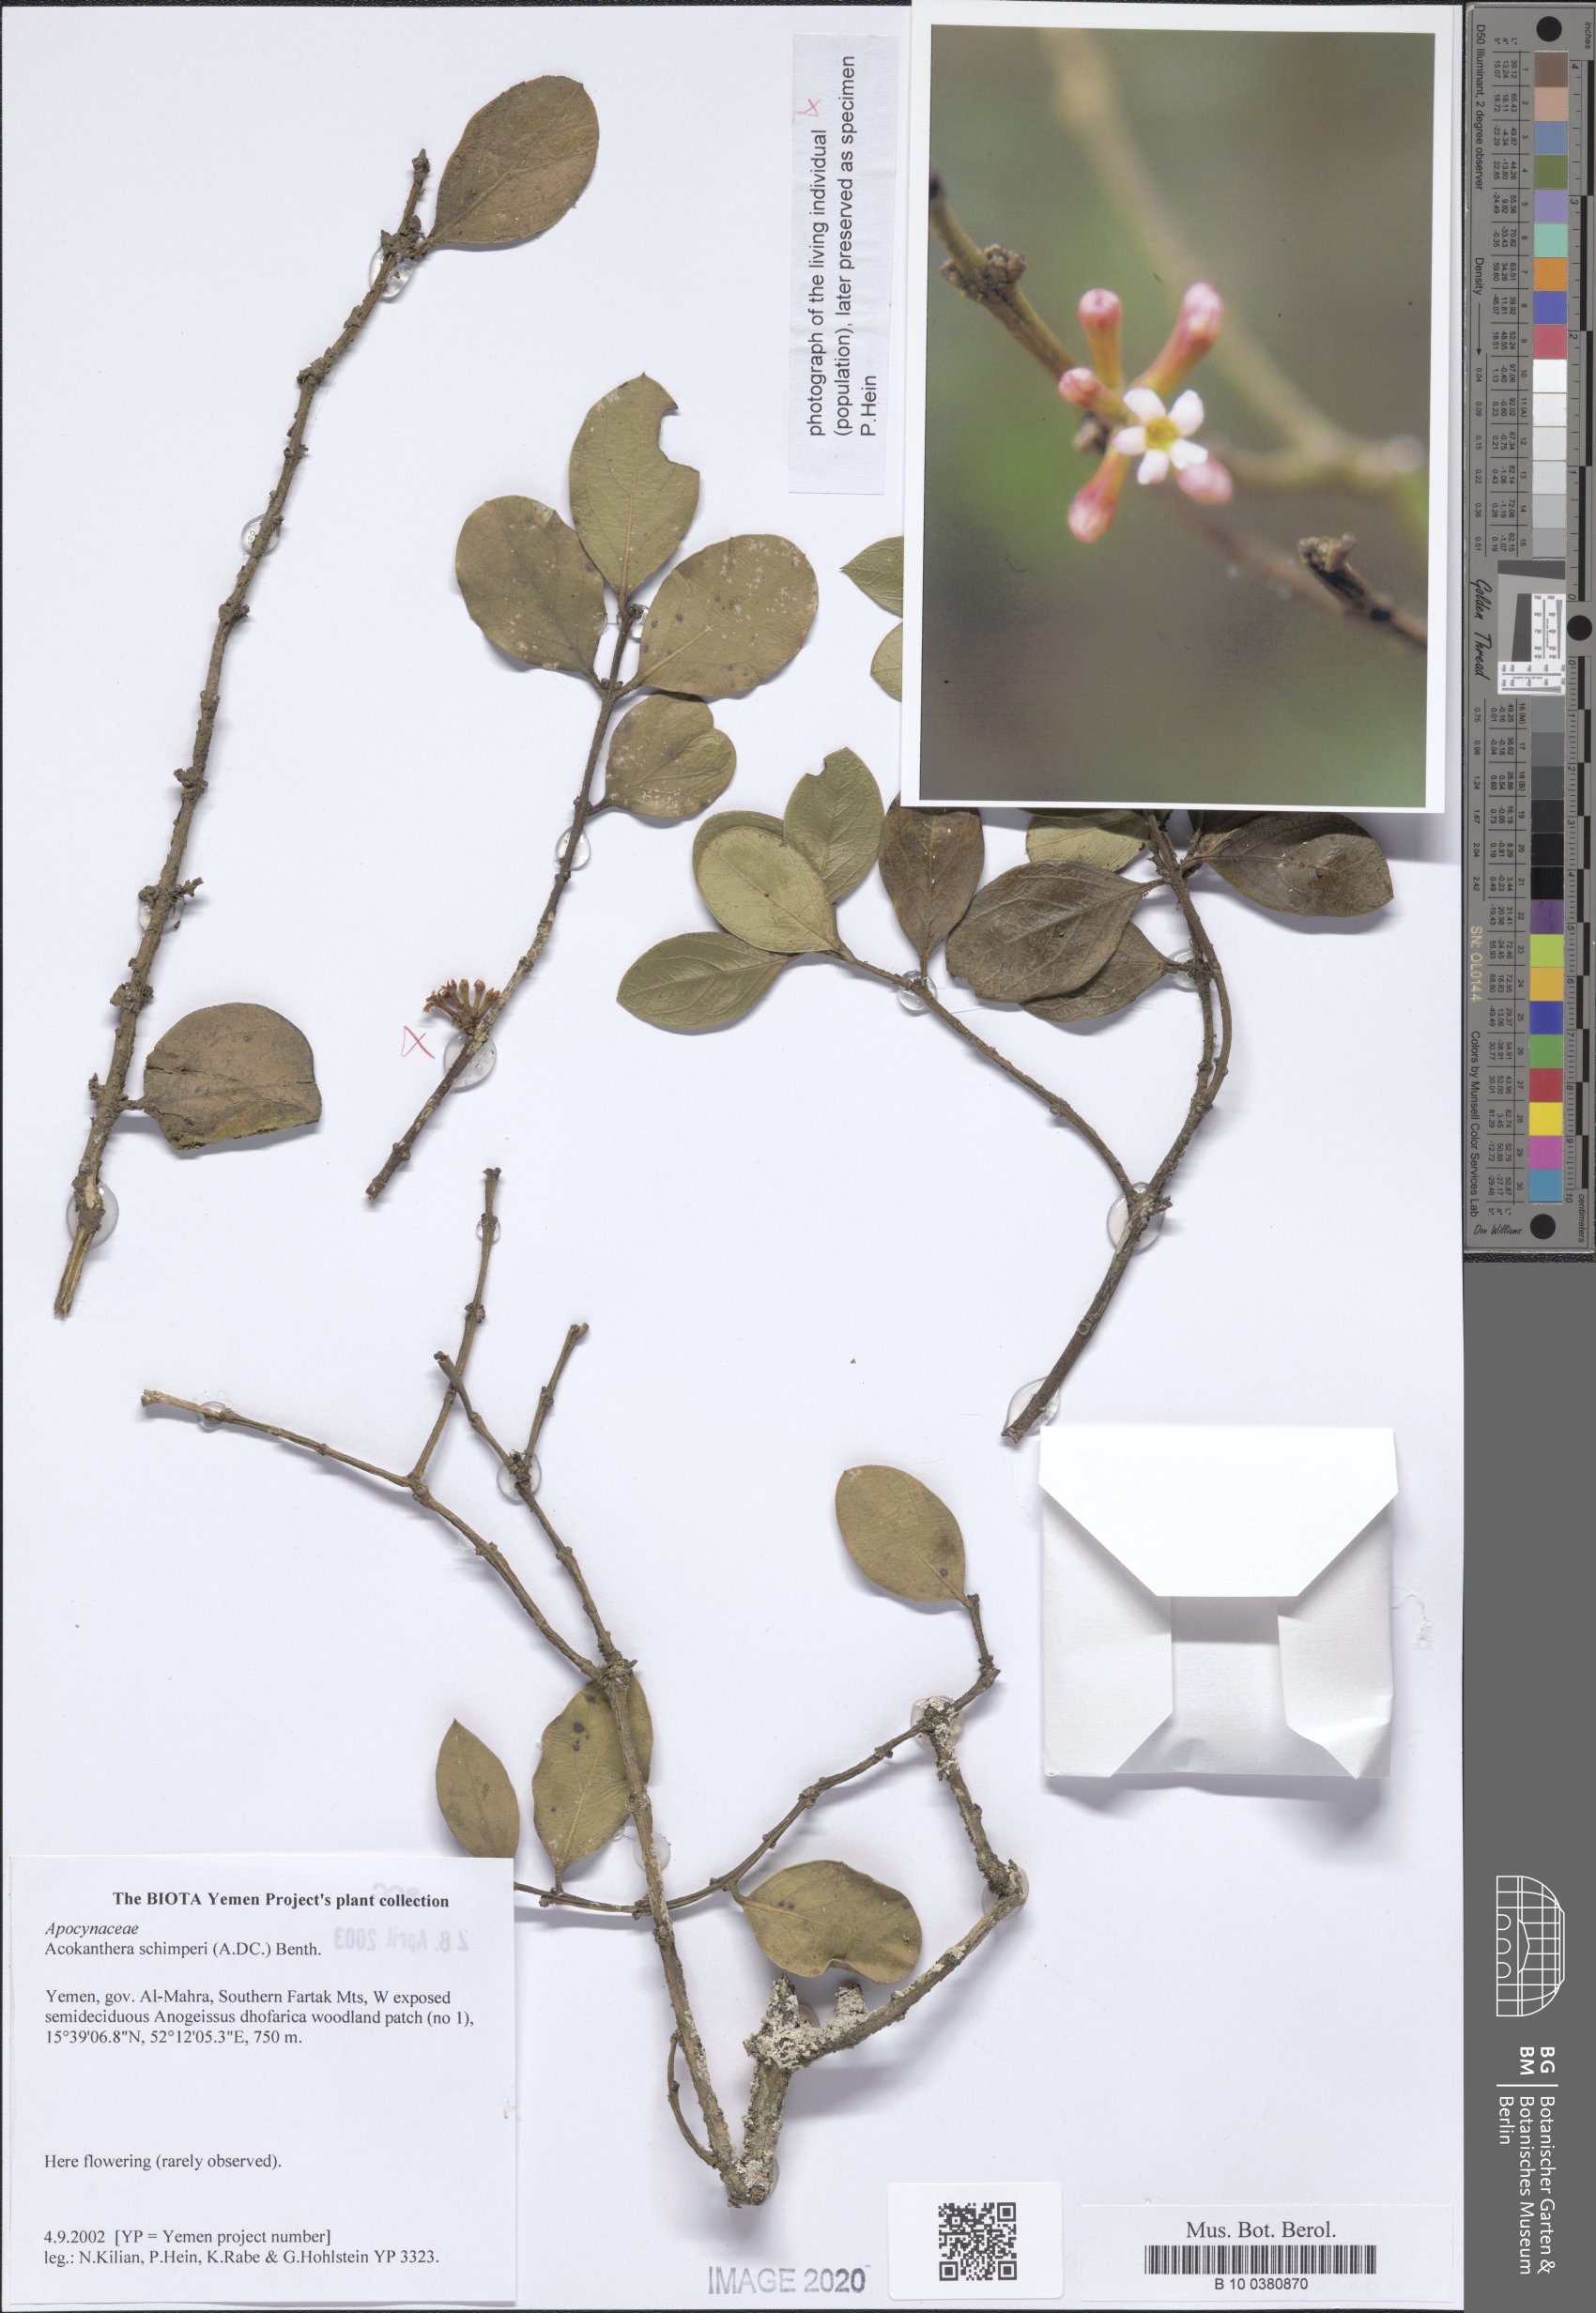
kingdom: Plantae
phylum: Tracheophyta
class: Magnoliopsida
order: Gentianales
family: Apocynaceae
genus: Acokanthera
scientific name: Acokanthera schimperi
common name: Arrow-poison-tree
